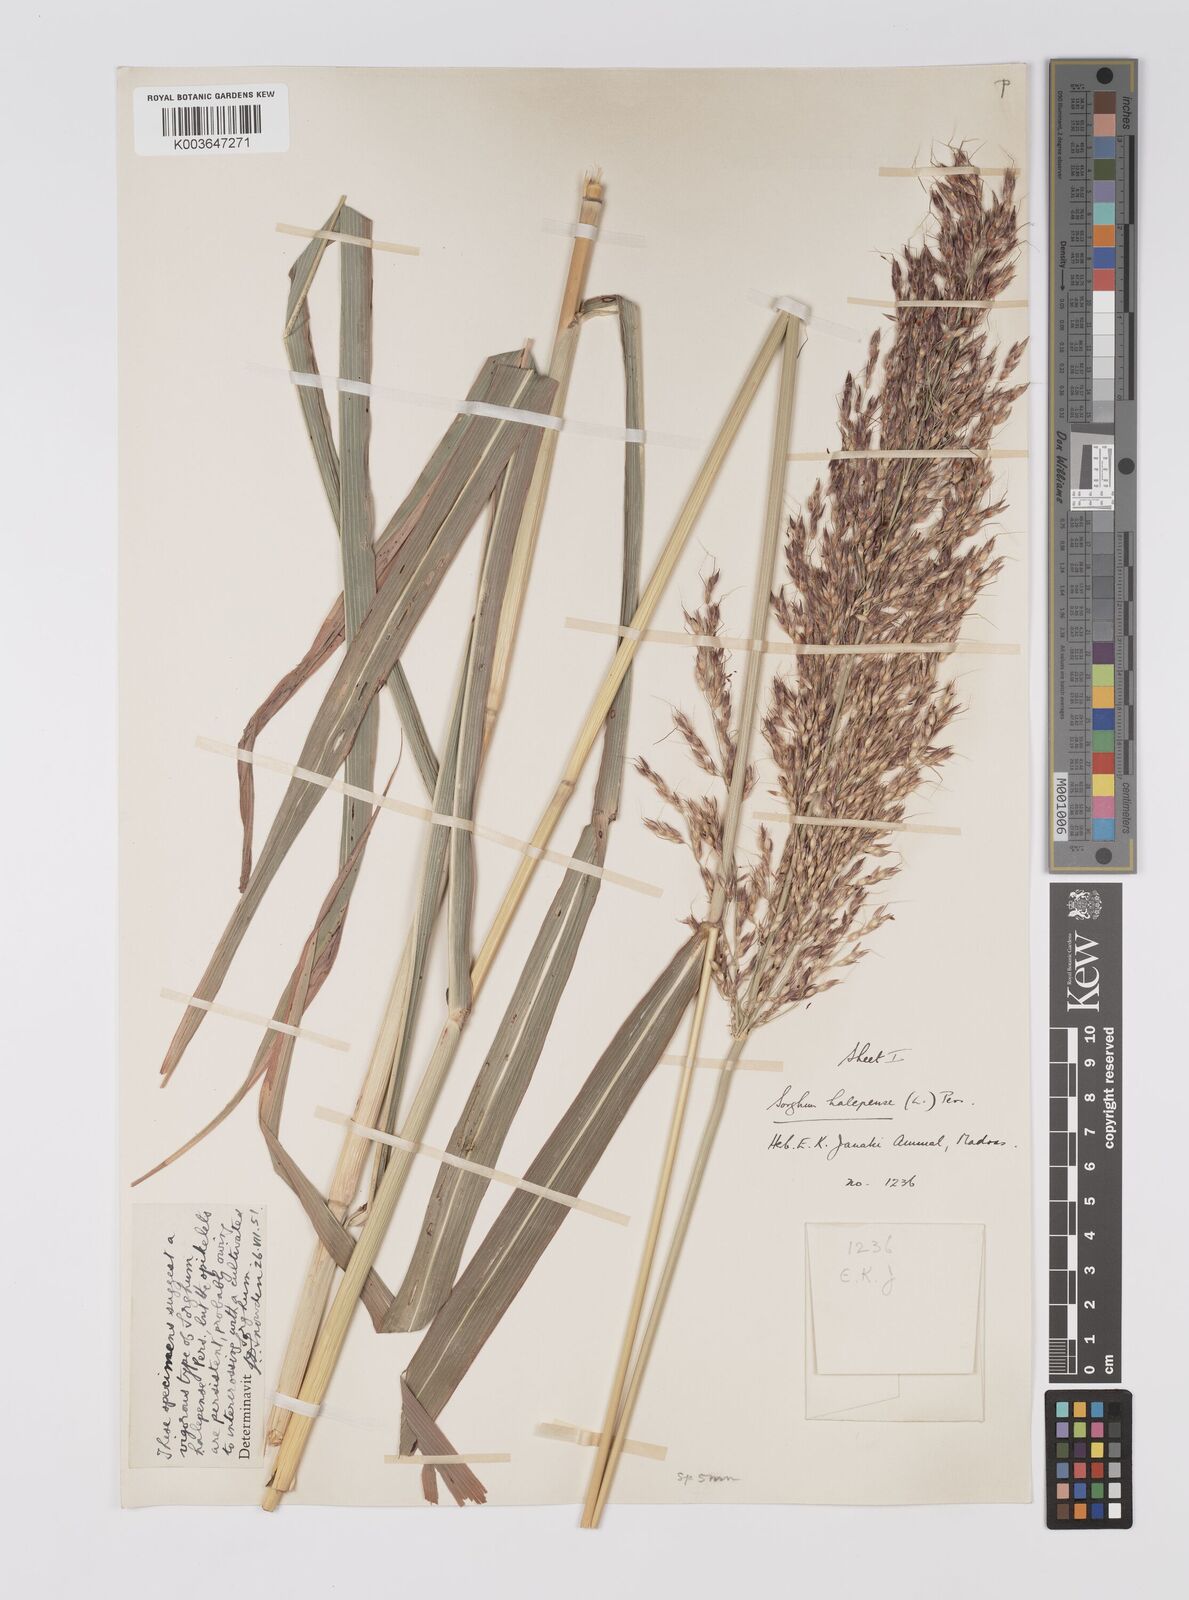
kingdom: Plantae
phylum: Tracheophyta
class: Liliopsida
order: Poales
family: Poaceae
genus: Sorghum
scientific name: Sorghum halepense
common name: Johnson-grass
